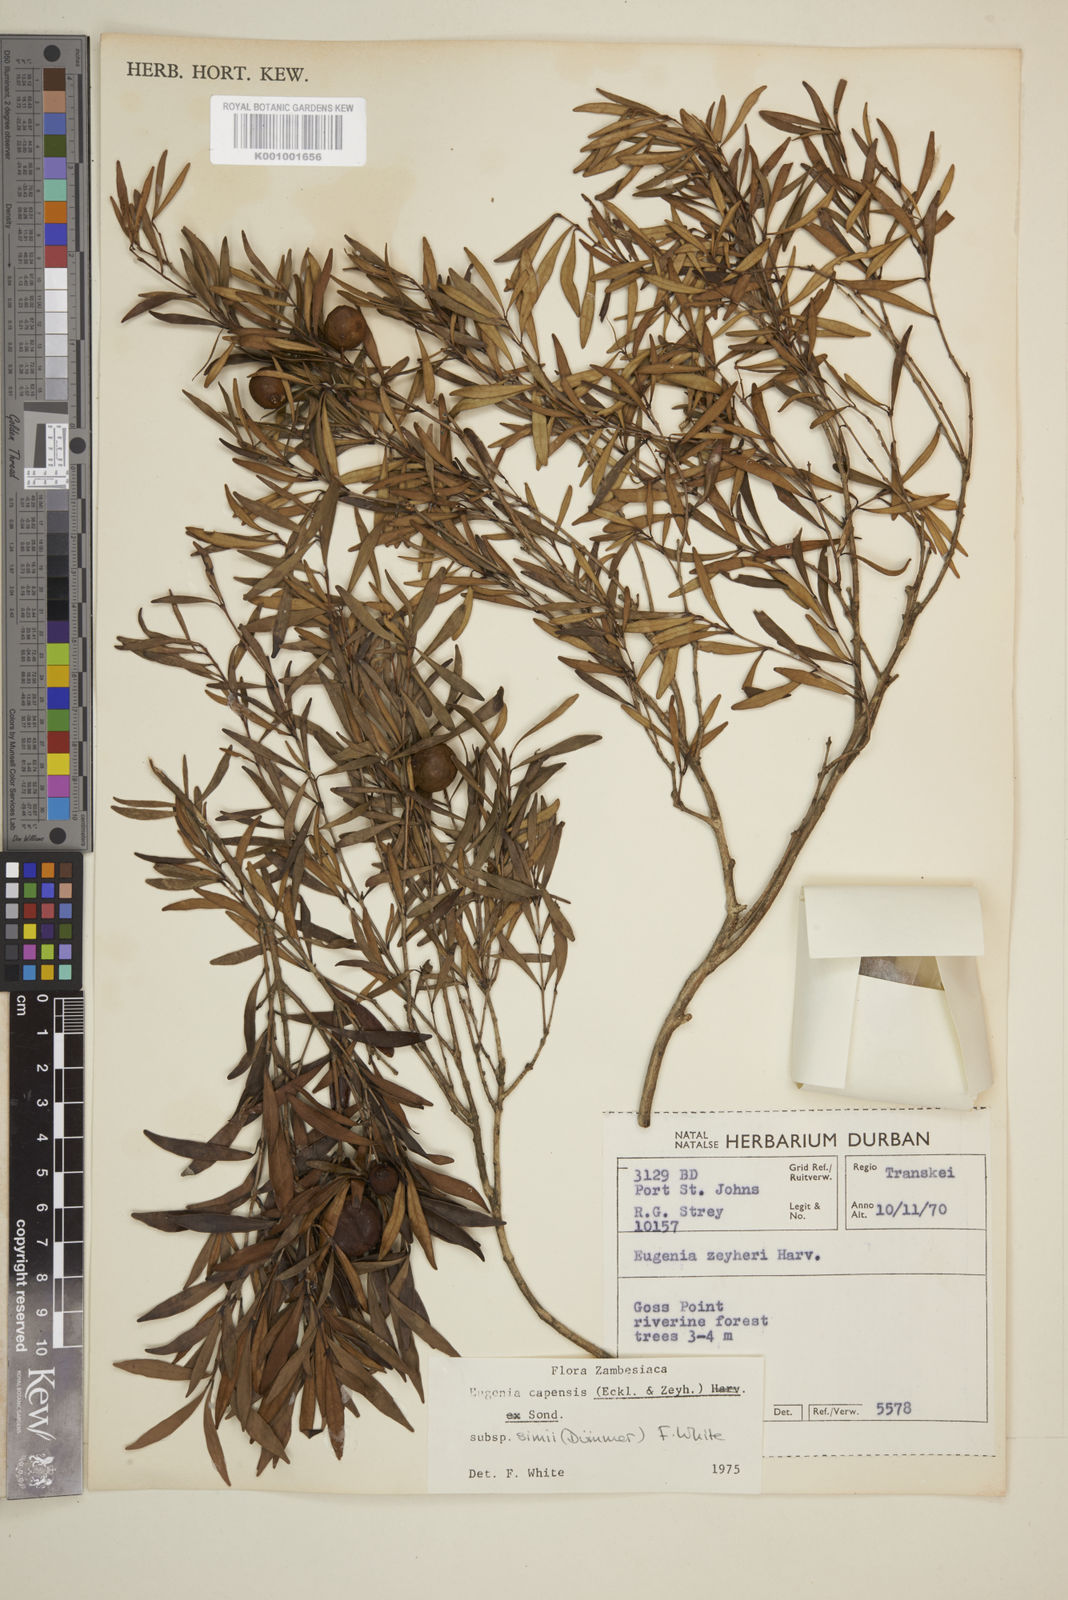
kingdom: Plantae
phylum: Tracheophyta
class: Magnoliopsida
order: Myrtales
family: Myrtaceae
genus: Eugenia
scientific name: Eugenia simii
